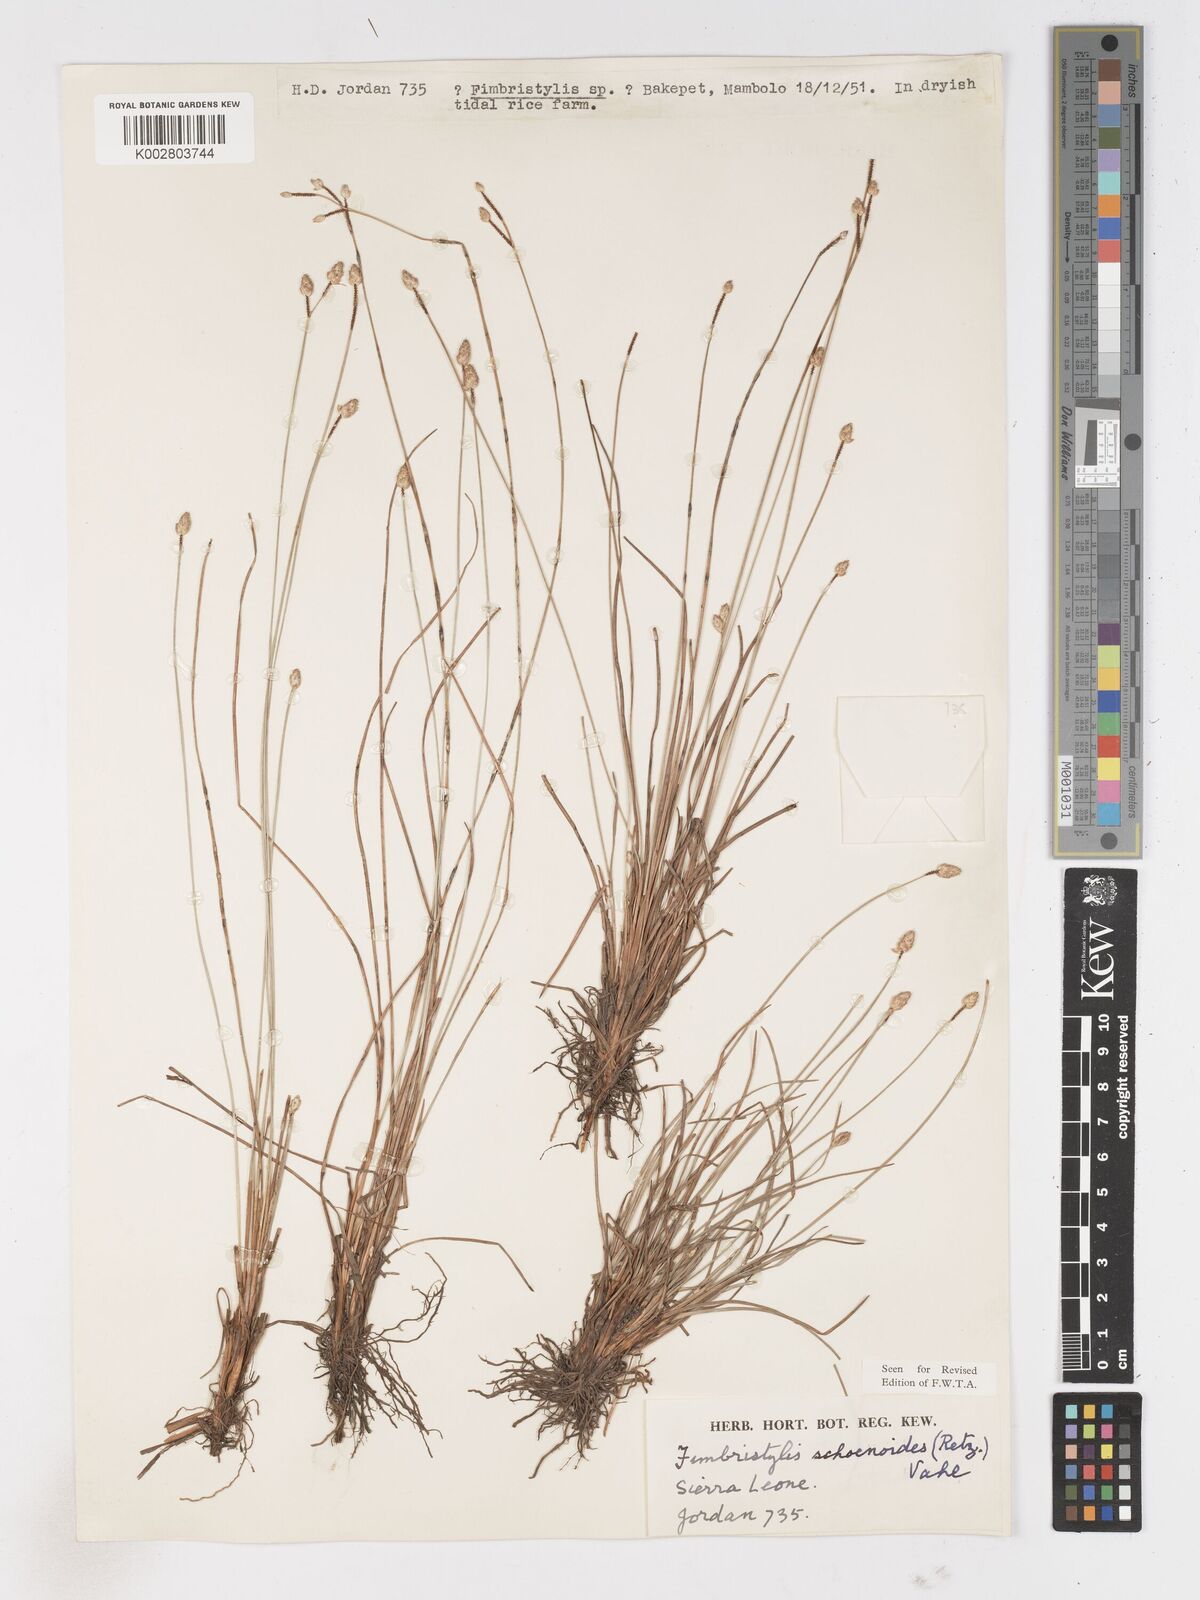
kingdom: Plantae
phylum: Tracheophyta
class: Liliopsida
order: Poales
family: Cyperaceae
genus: Fimbristylis
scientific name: Fimbristylis schoenoides
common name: Ditch fimbry
